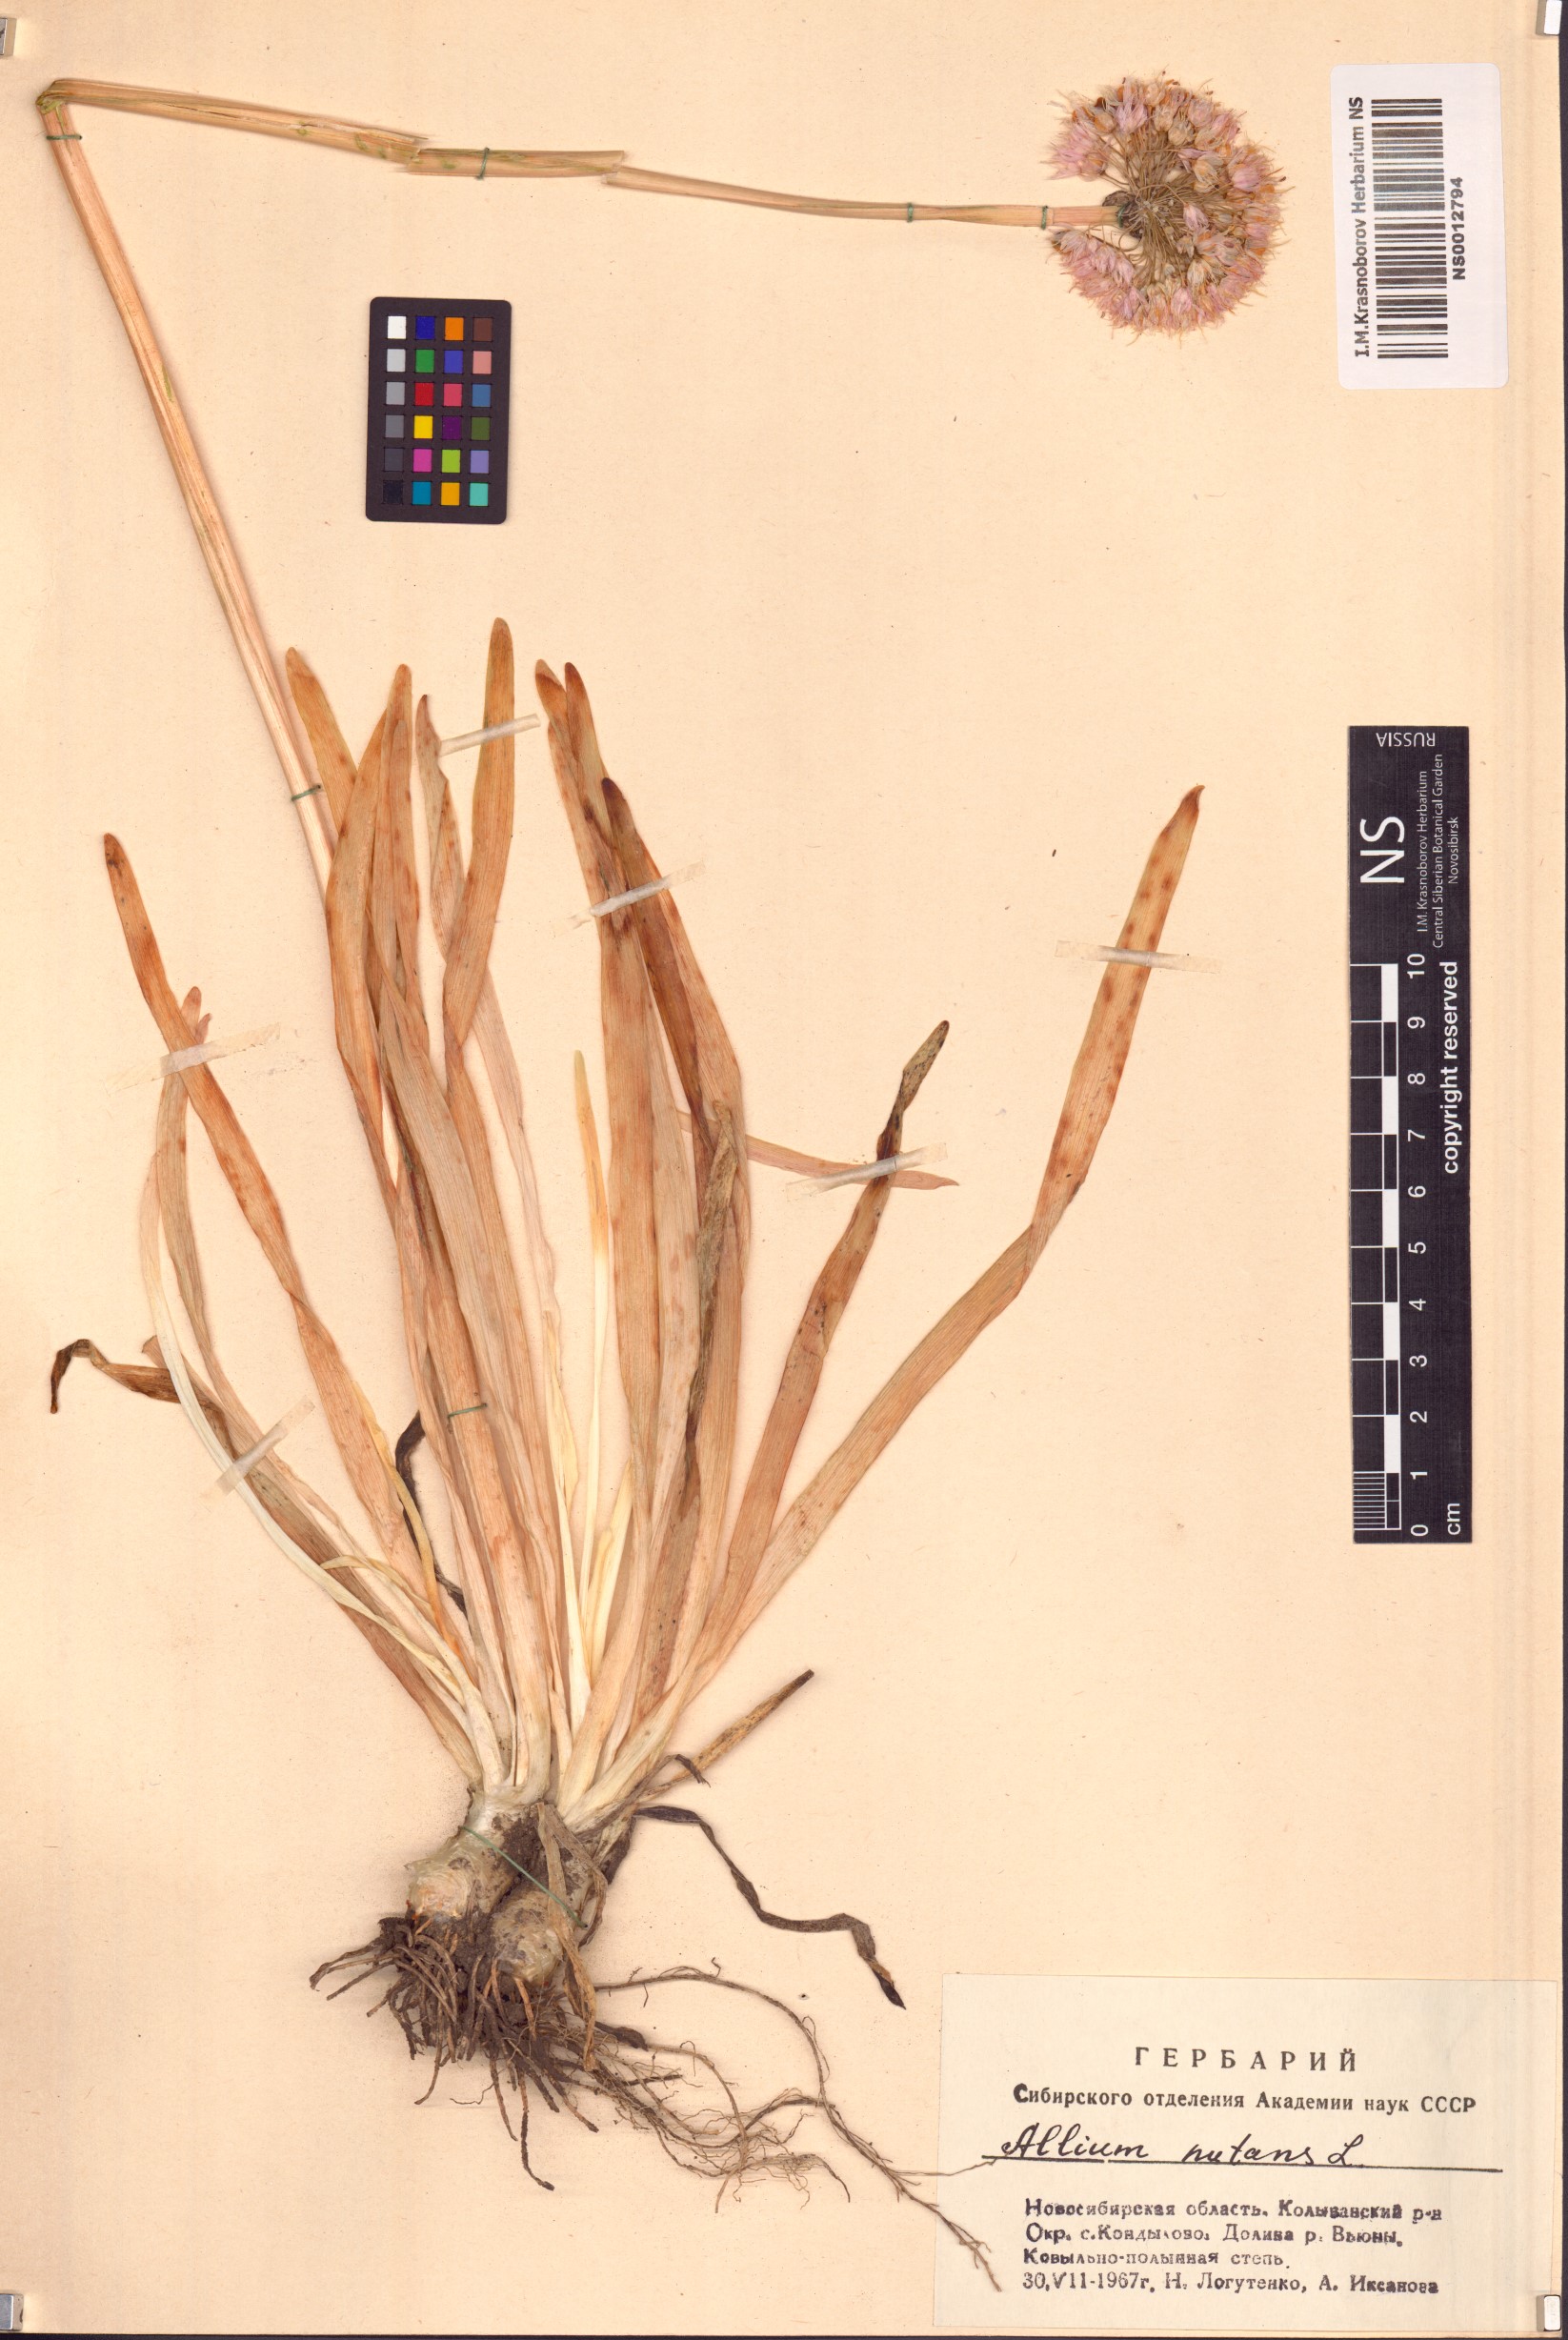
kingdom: Plantae
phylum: Tracheophyta
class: Liliopsida
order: Asparagales
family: Amaryllidaceae
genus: Allium
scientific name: Allium nutans
